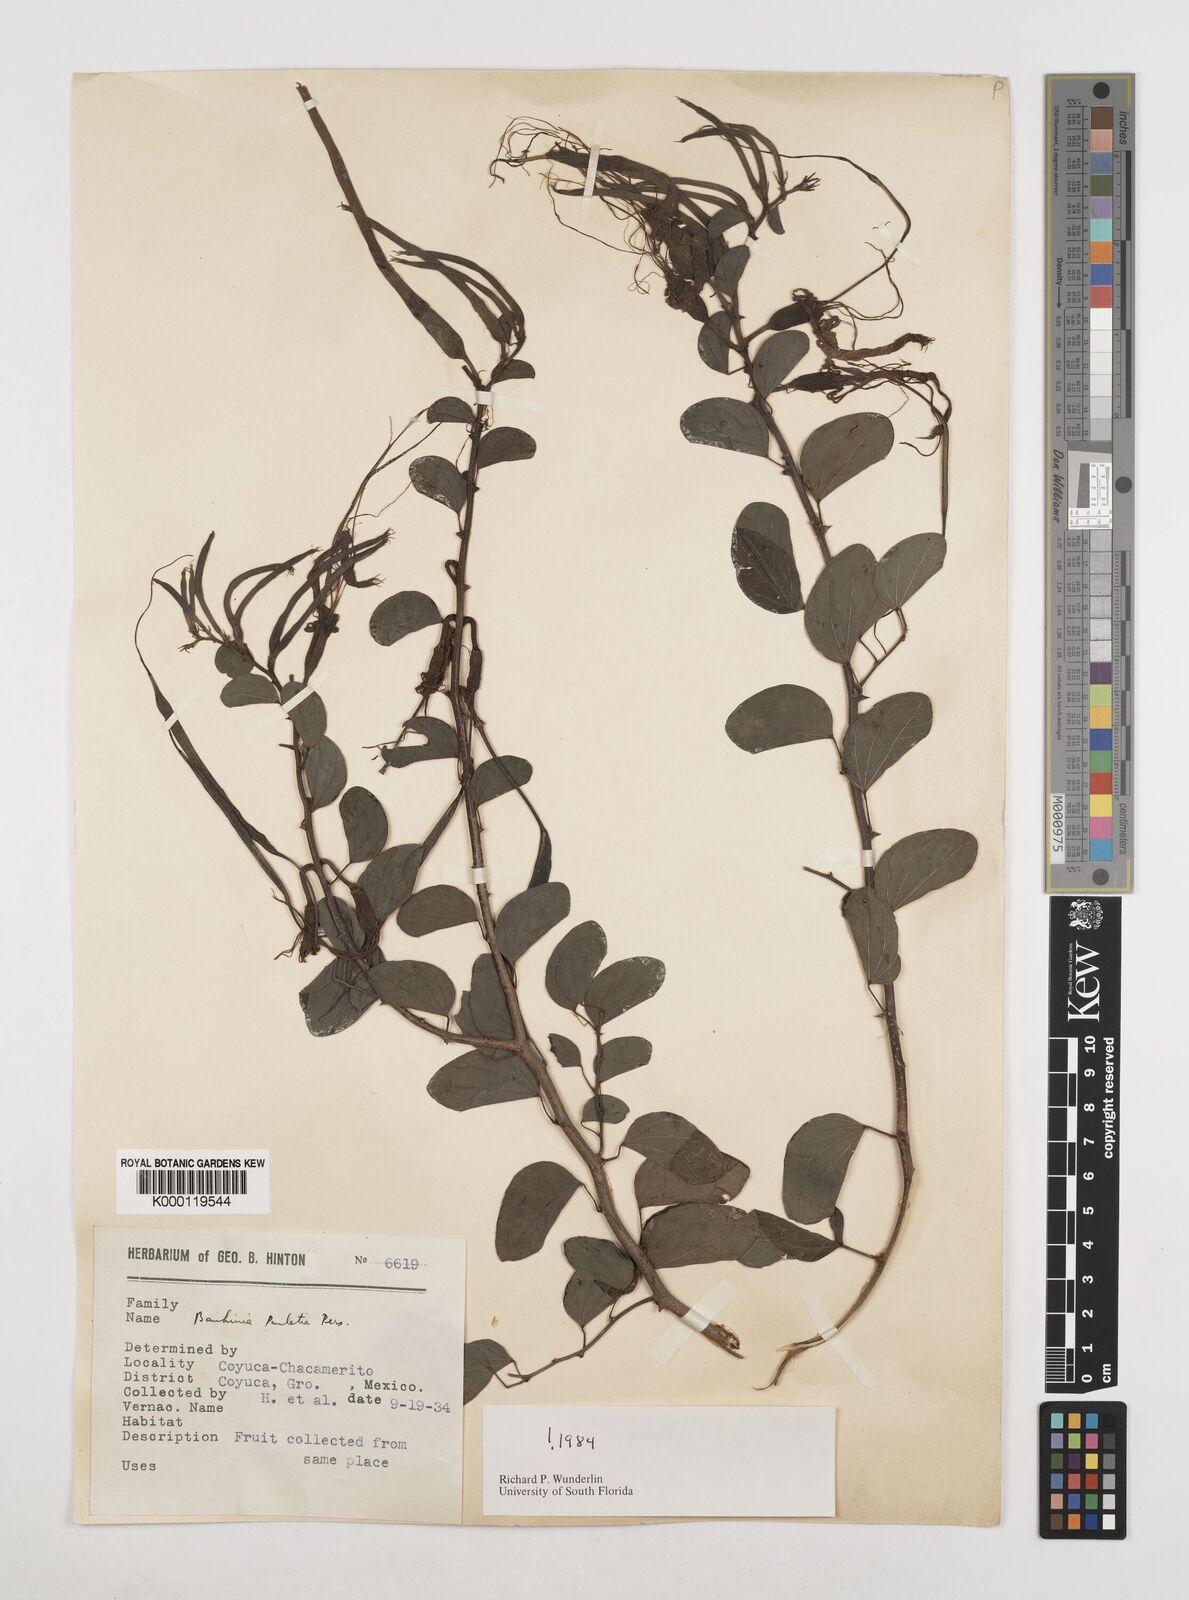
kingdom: Plantae
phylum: Tracheophyta
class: Magnoliopsida
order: Fabales
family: Fabaceae
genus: Bauhinia
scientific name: Bauhinia pauletia
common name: Railway-fence bauhinia
